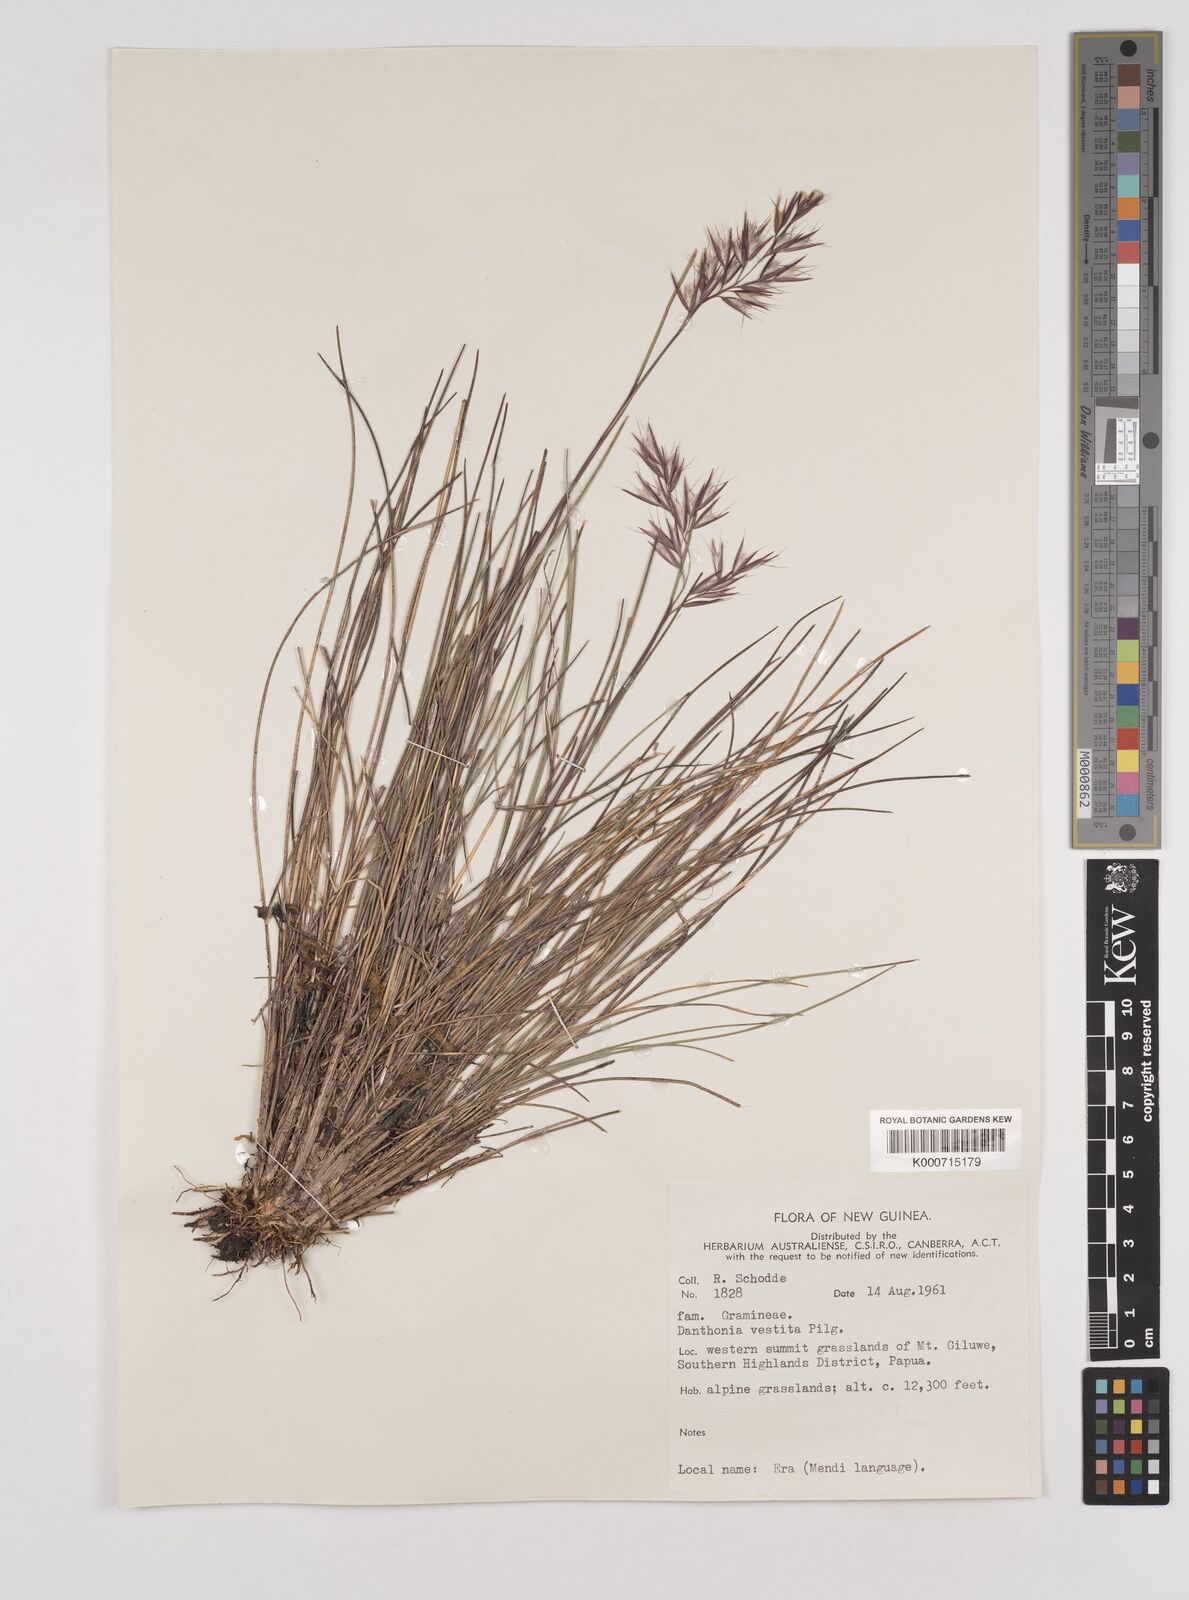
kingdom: Plantae
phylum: Tracheophyta
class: Liliopsida
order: Poales
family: Poaceae
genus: Rytidosperma
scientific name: Rytidosperma vestitum
